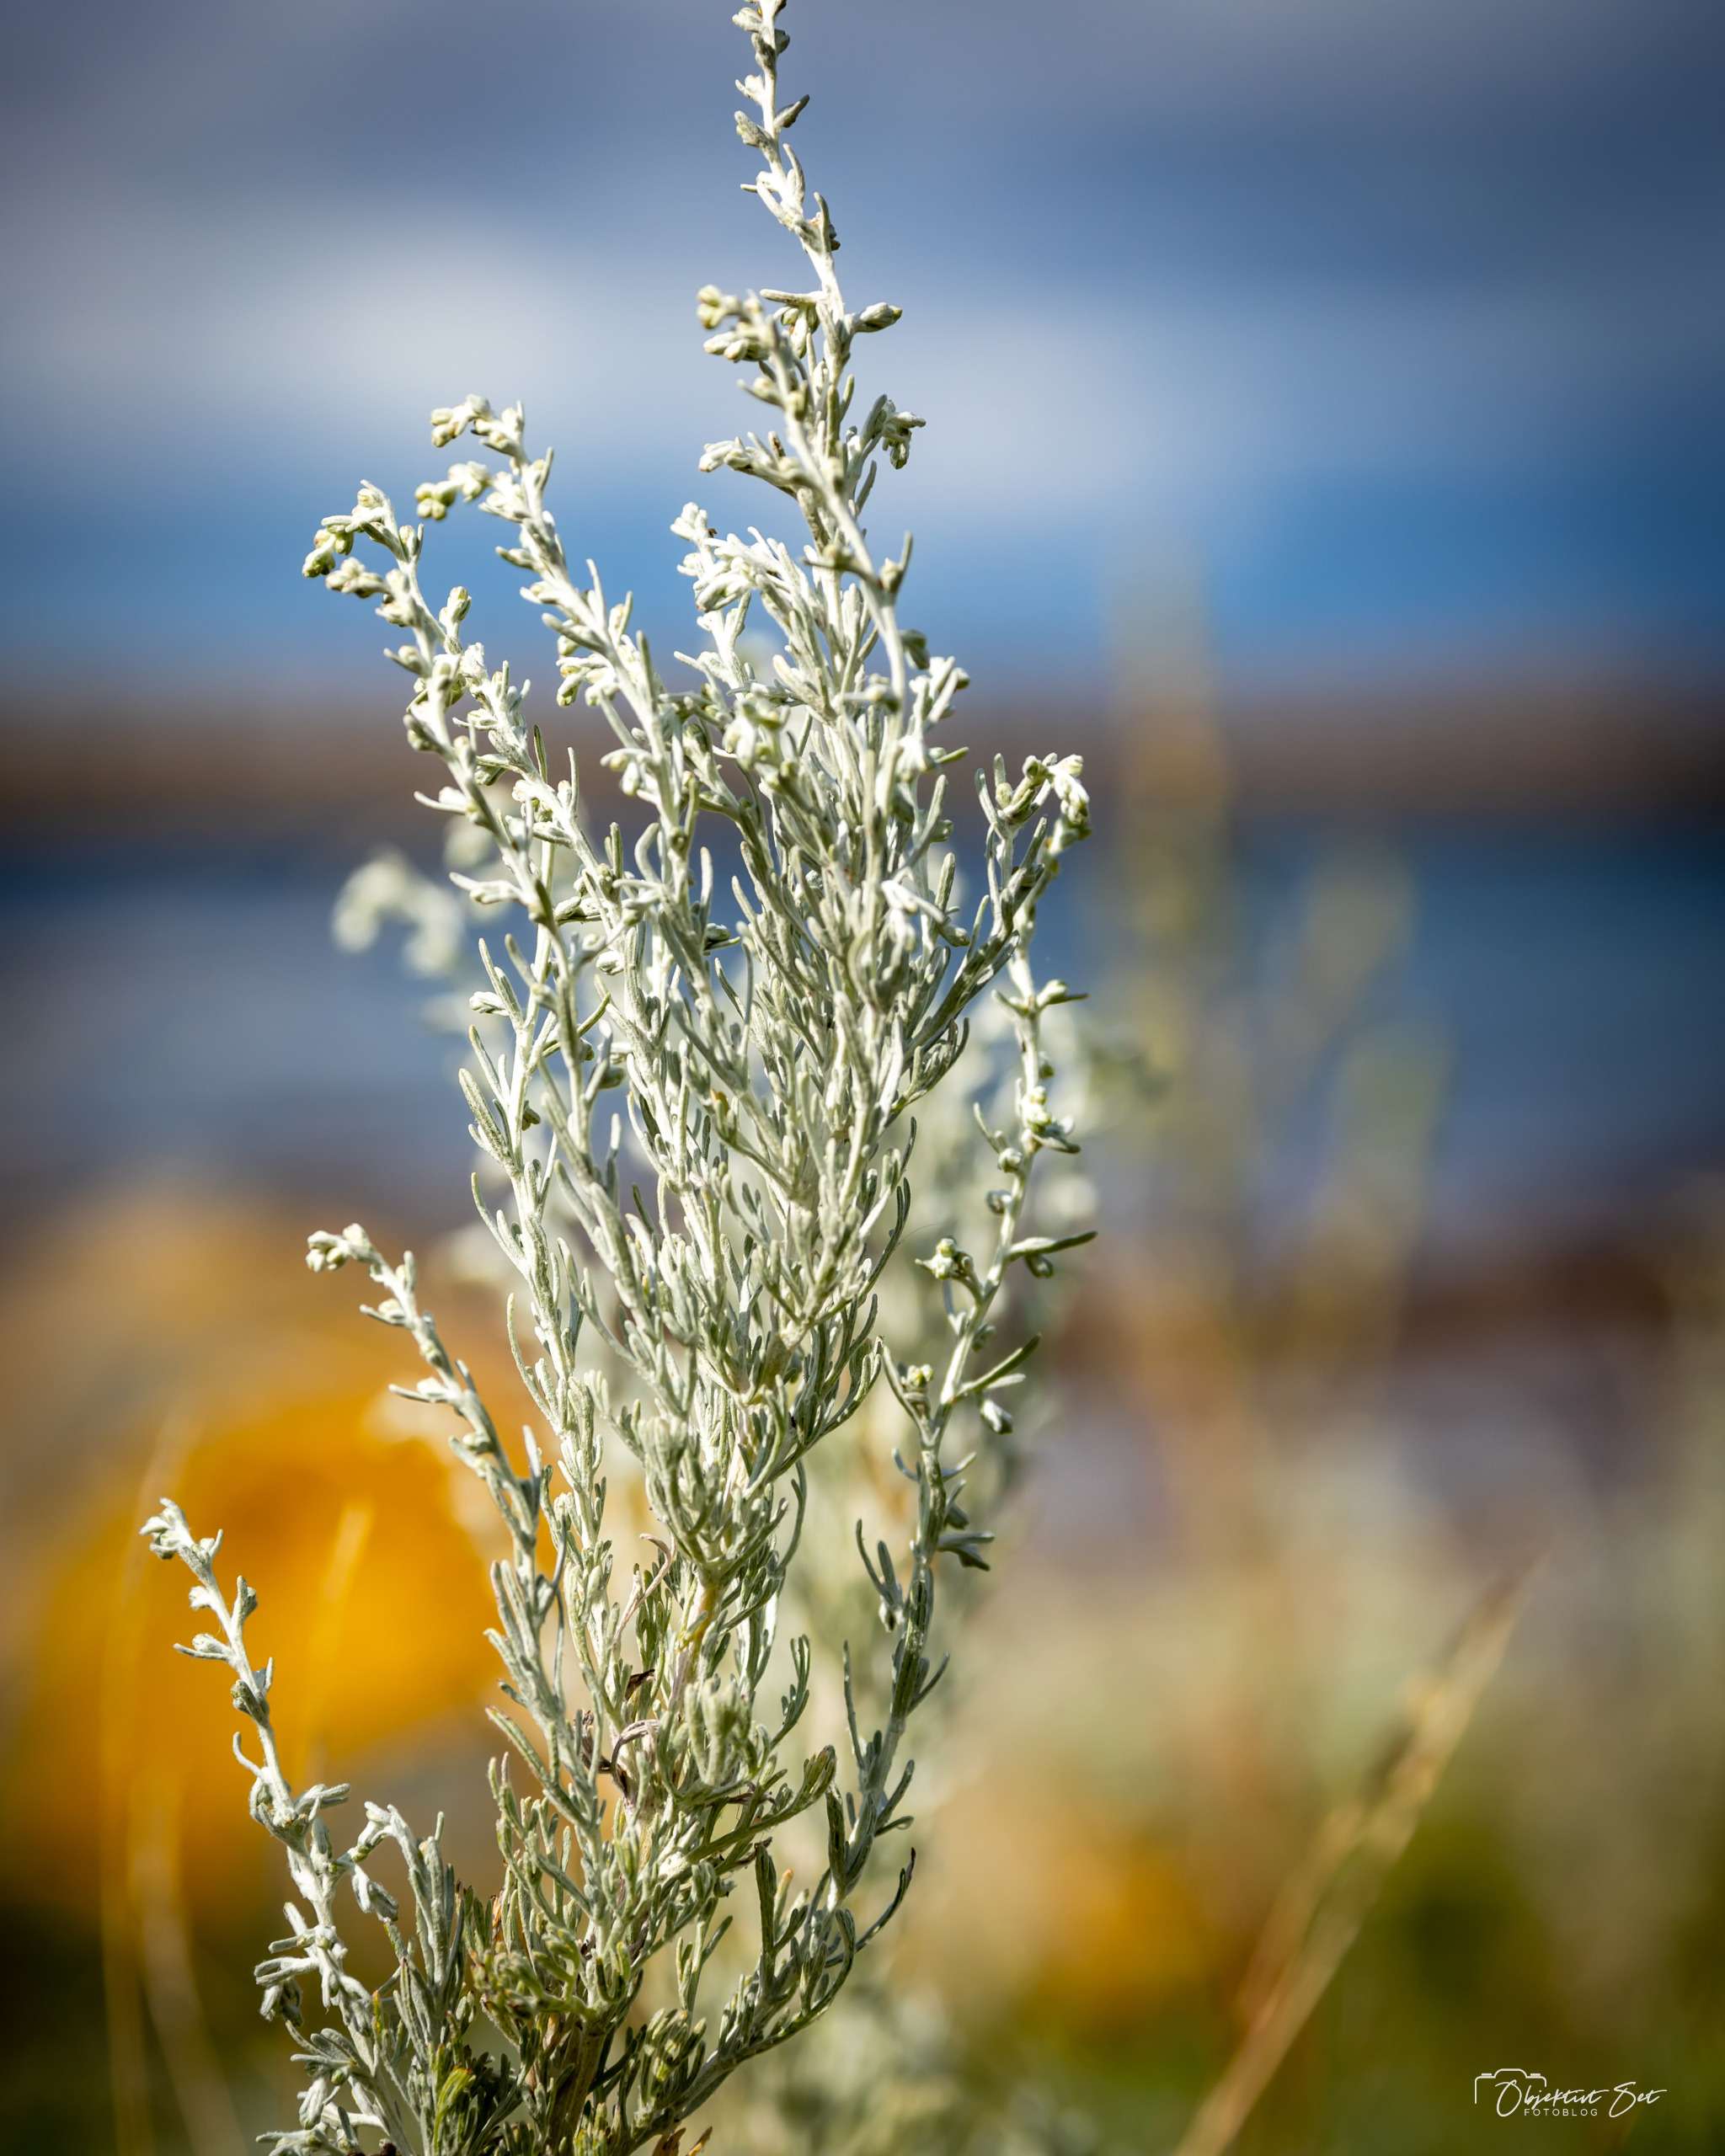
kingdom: Plantae
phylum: Tracheophyta
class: Magnoliopsida
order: Asterales
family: Asteraceae
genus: Artemisia
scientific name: Artemisia maritima
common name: Strandmalurt
